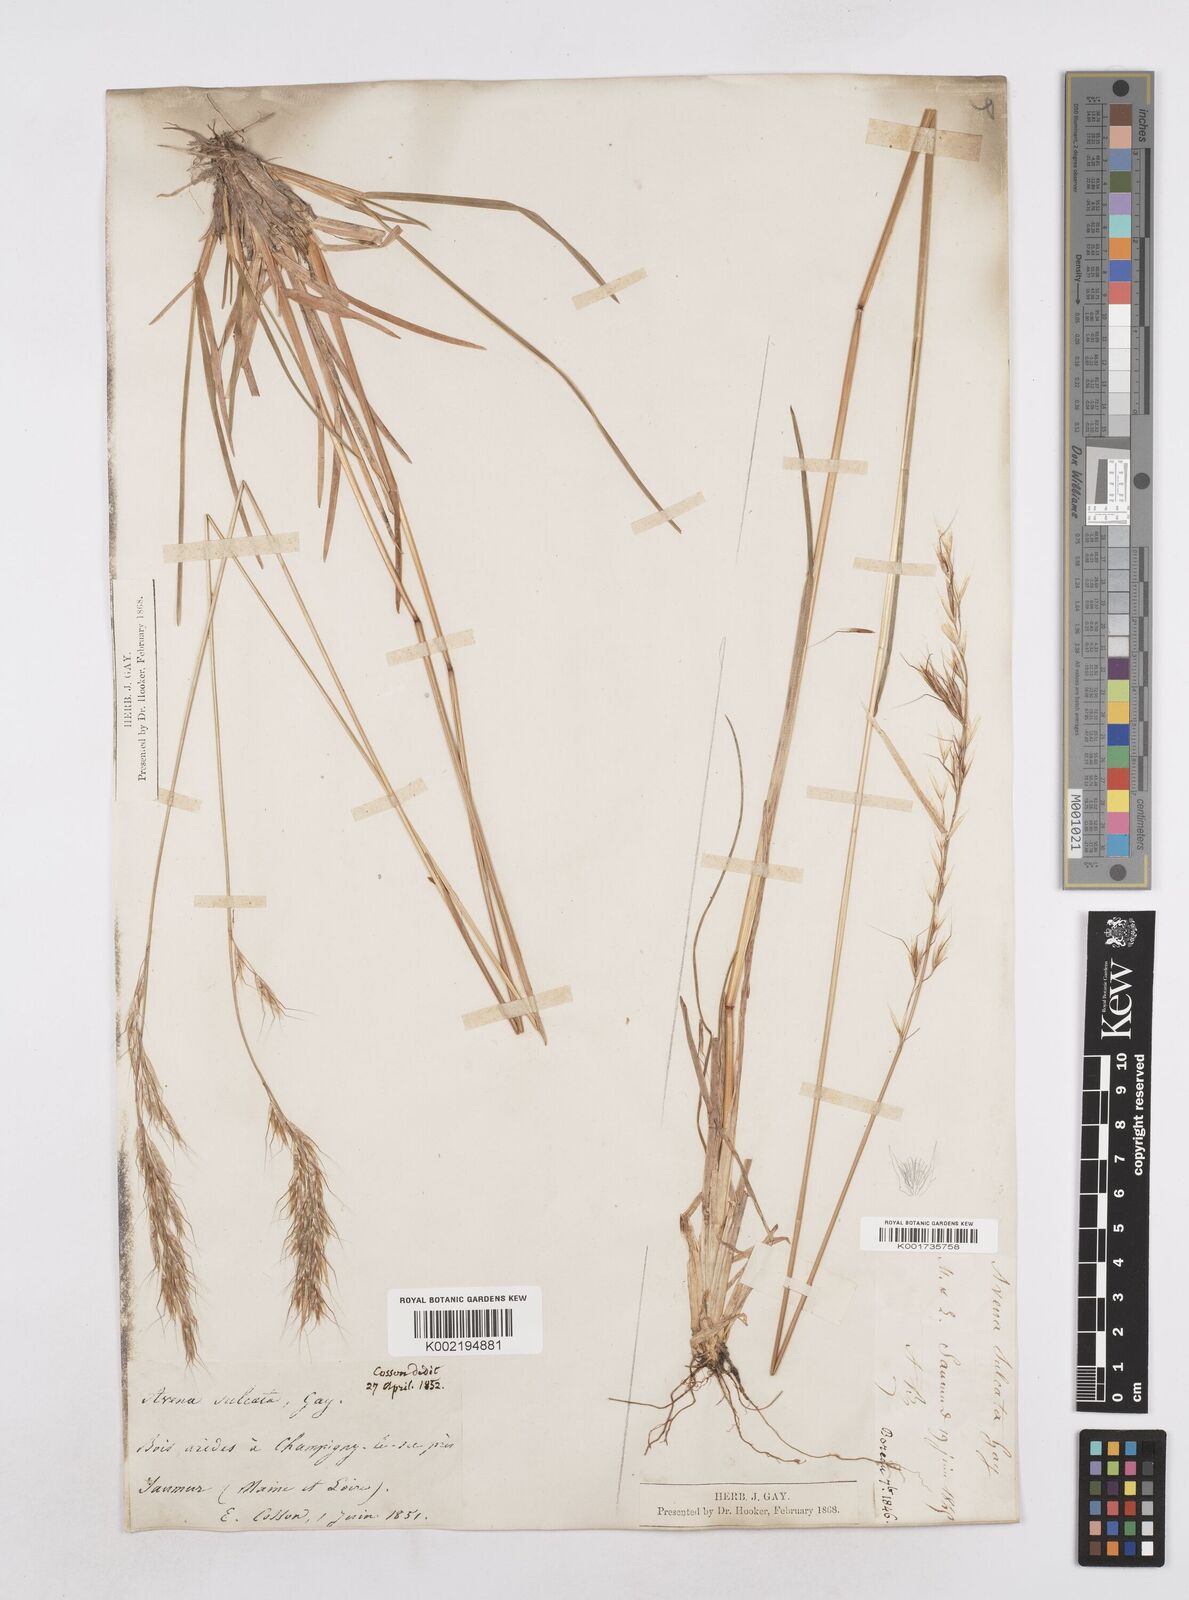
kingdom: Plantae
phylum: Tracheophyta
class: Liliopsida
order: Poales
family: Poaceae
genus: Helictotrichon
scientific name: Helictotrichon
